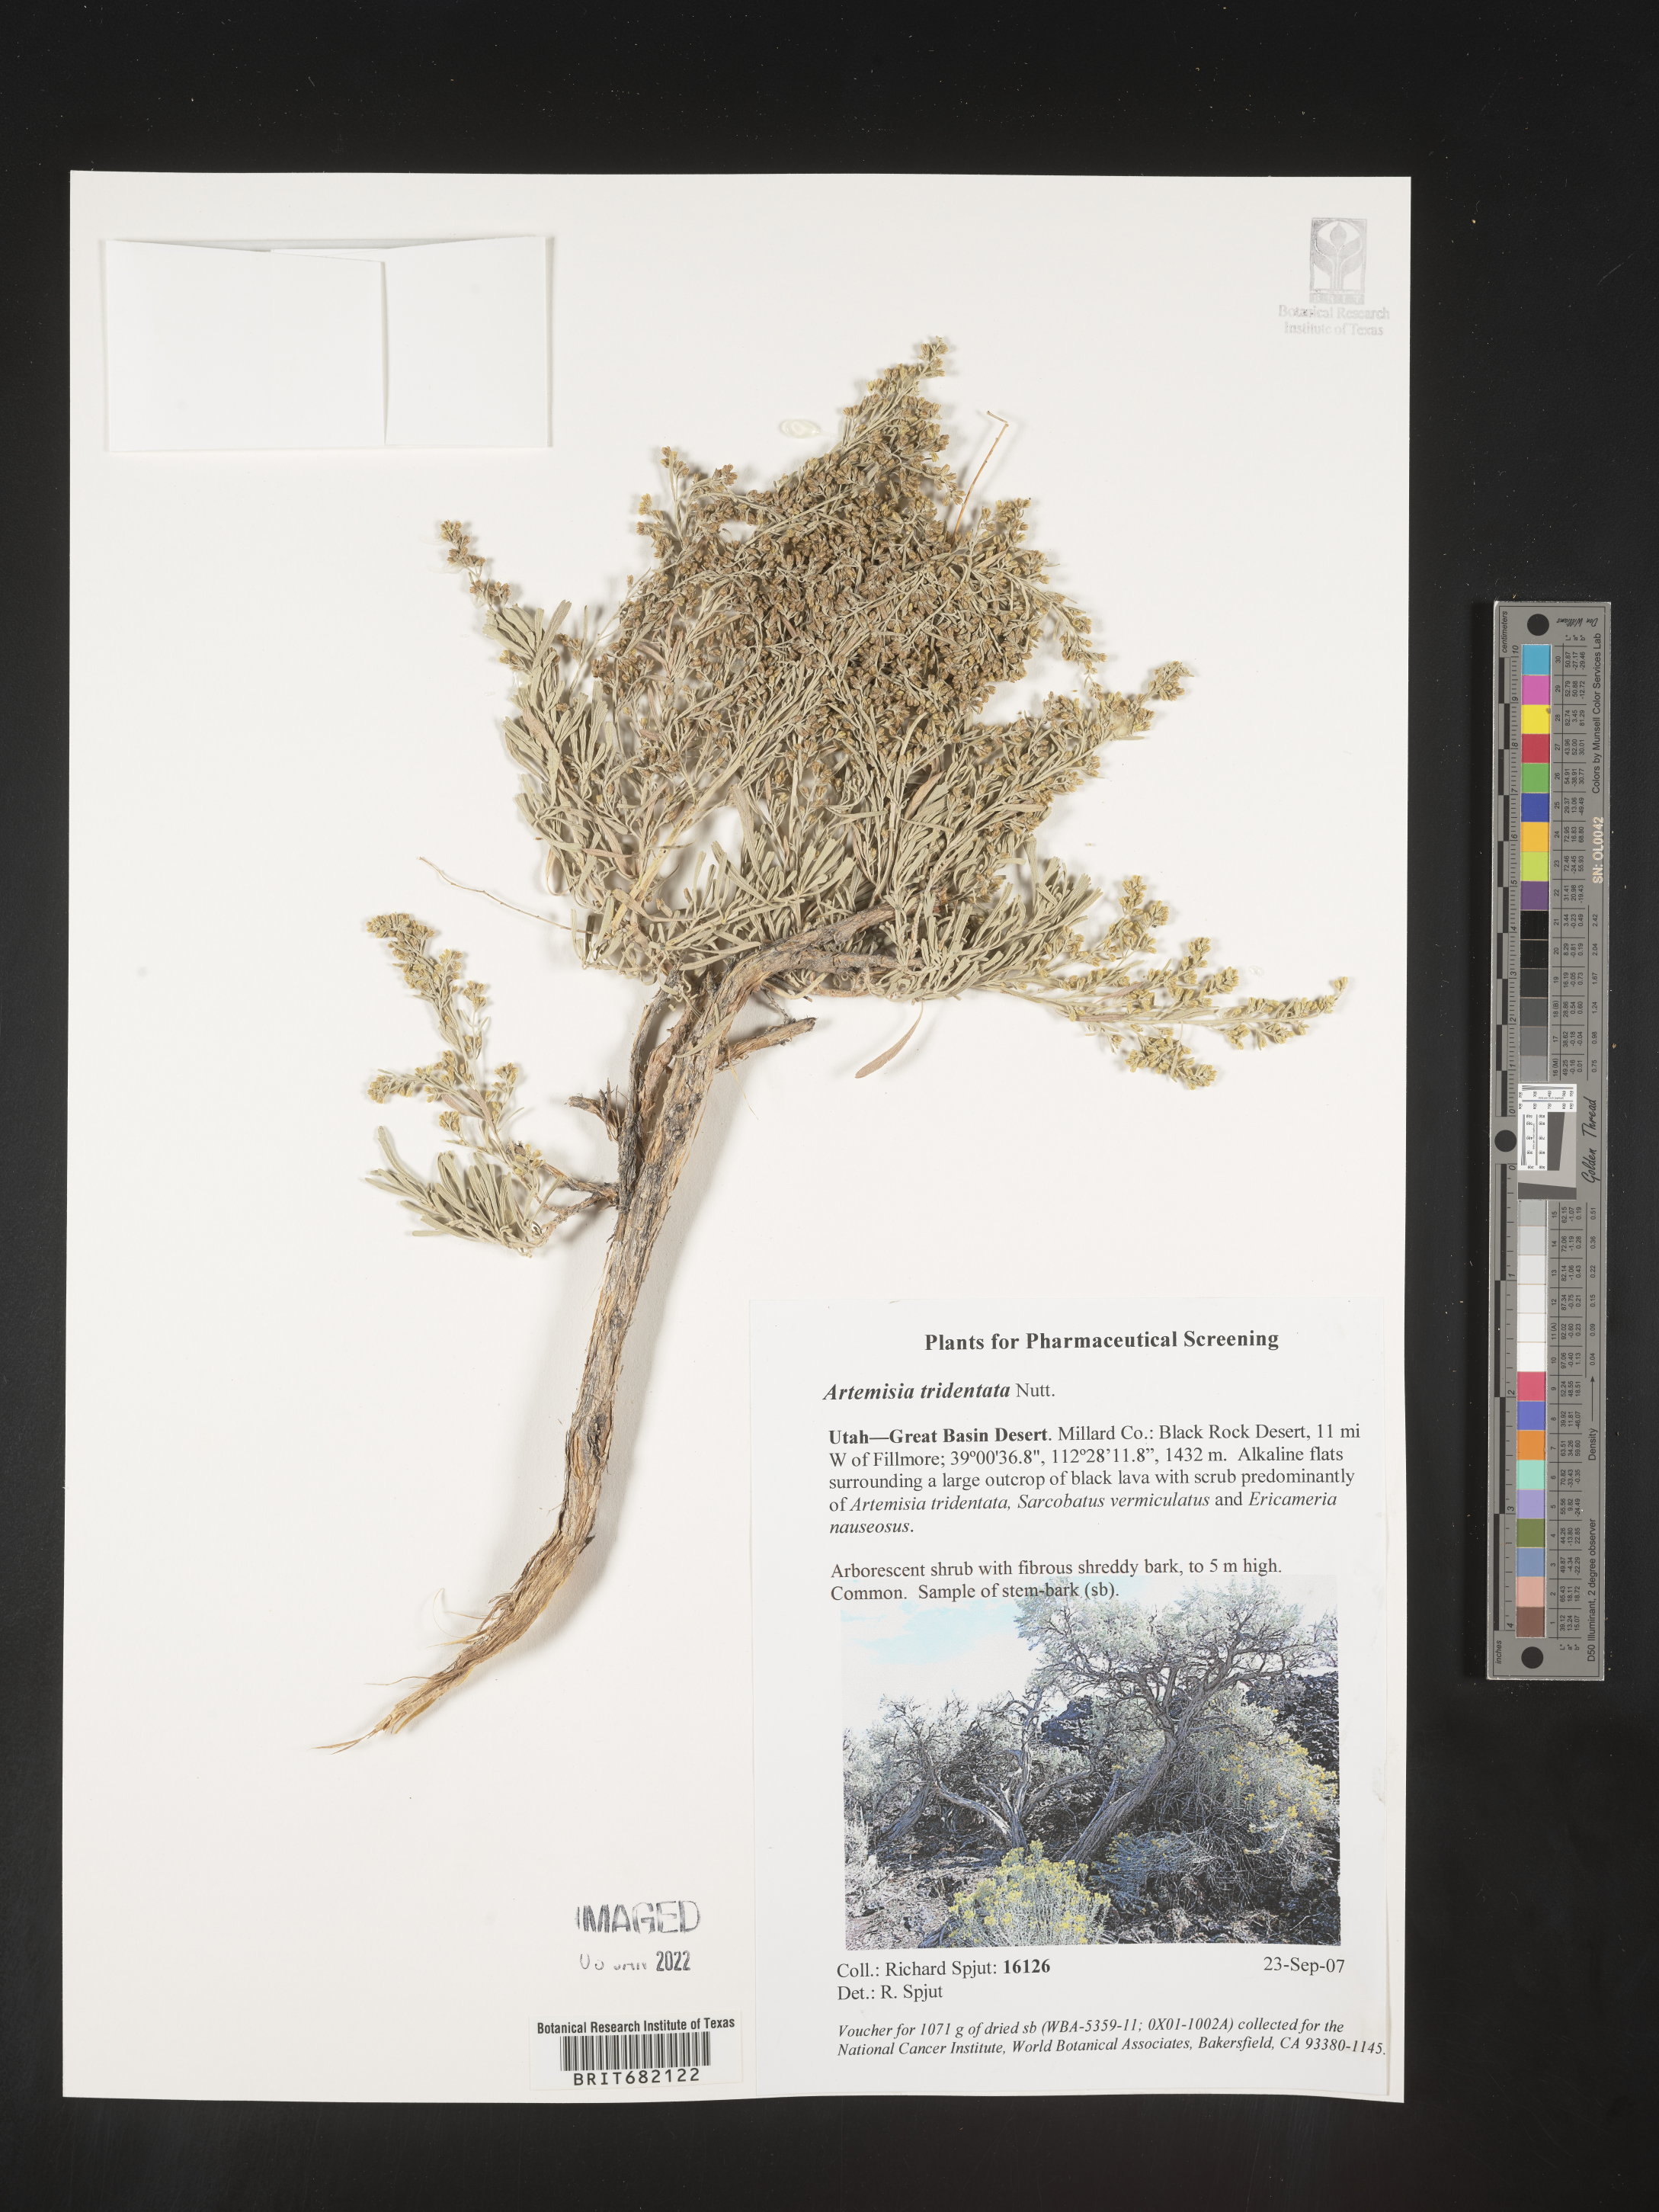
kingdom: Plantae
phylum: Tracheophyta
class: Magnoliopsida
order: Asterales
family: Asteraceae
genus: Artemisia
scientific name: Artemisia tridentata
